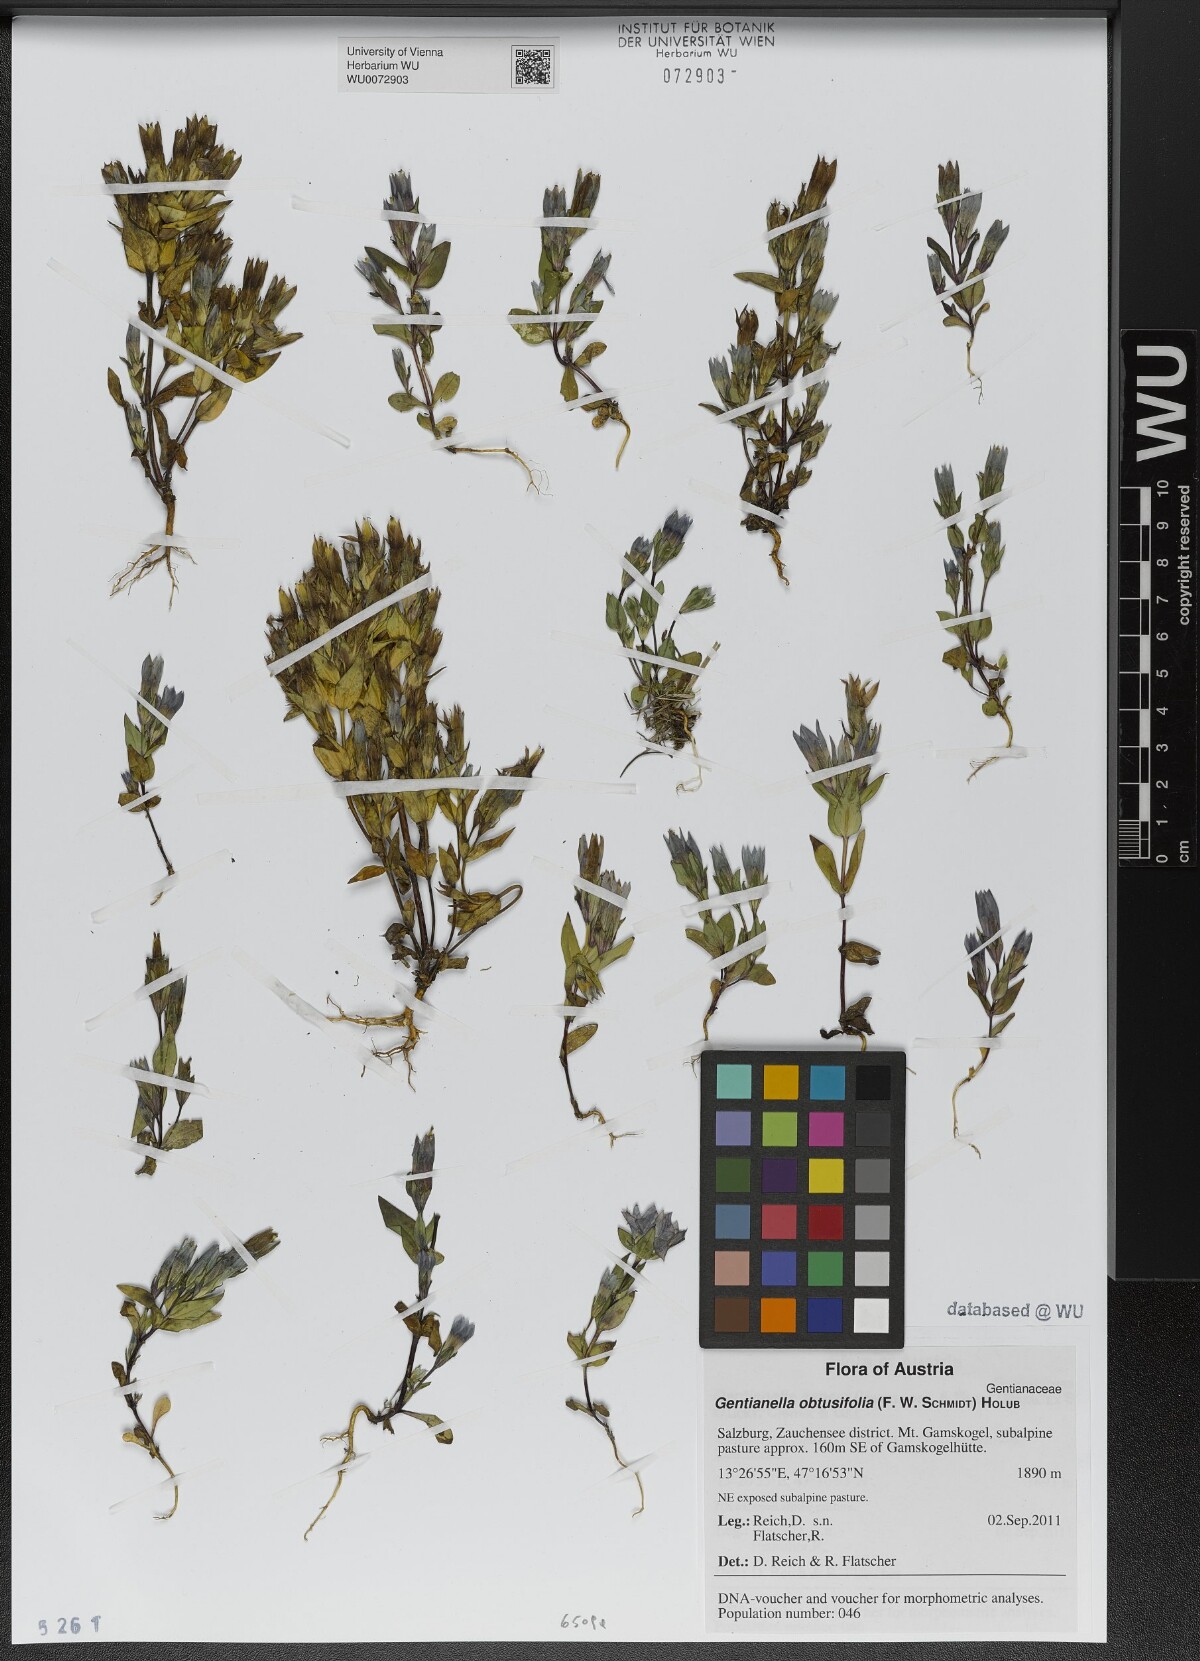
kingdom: Plantae
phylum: Tracheophyta
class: Magnoliopsida
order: Gentianales
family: Gentianaceae
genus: Gentianella
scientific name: Gentianella obtusifolia
